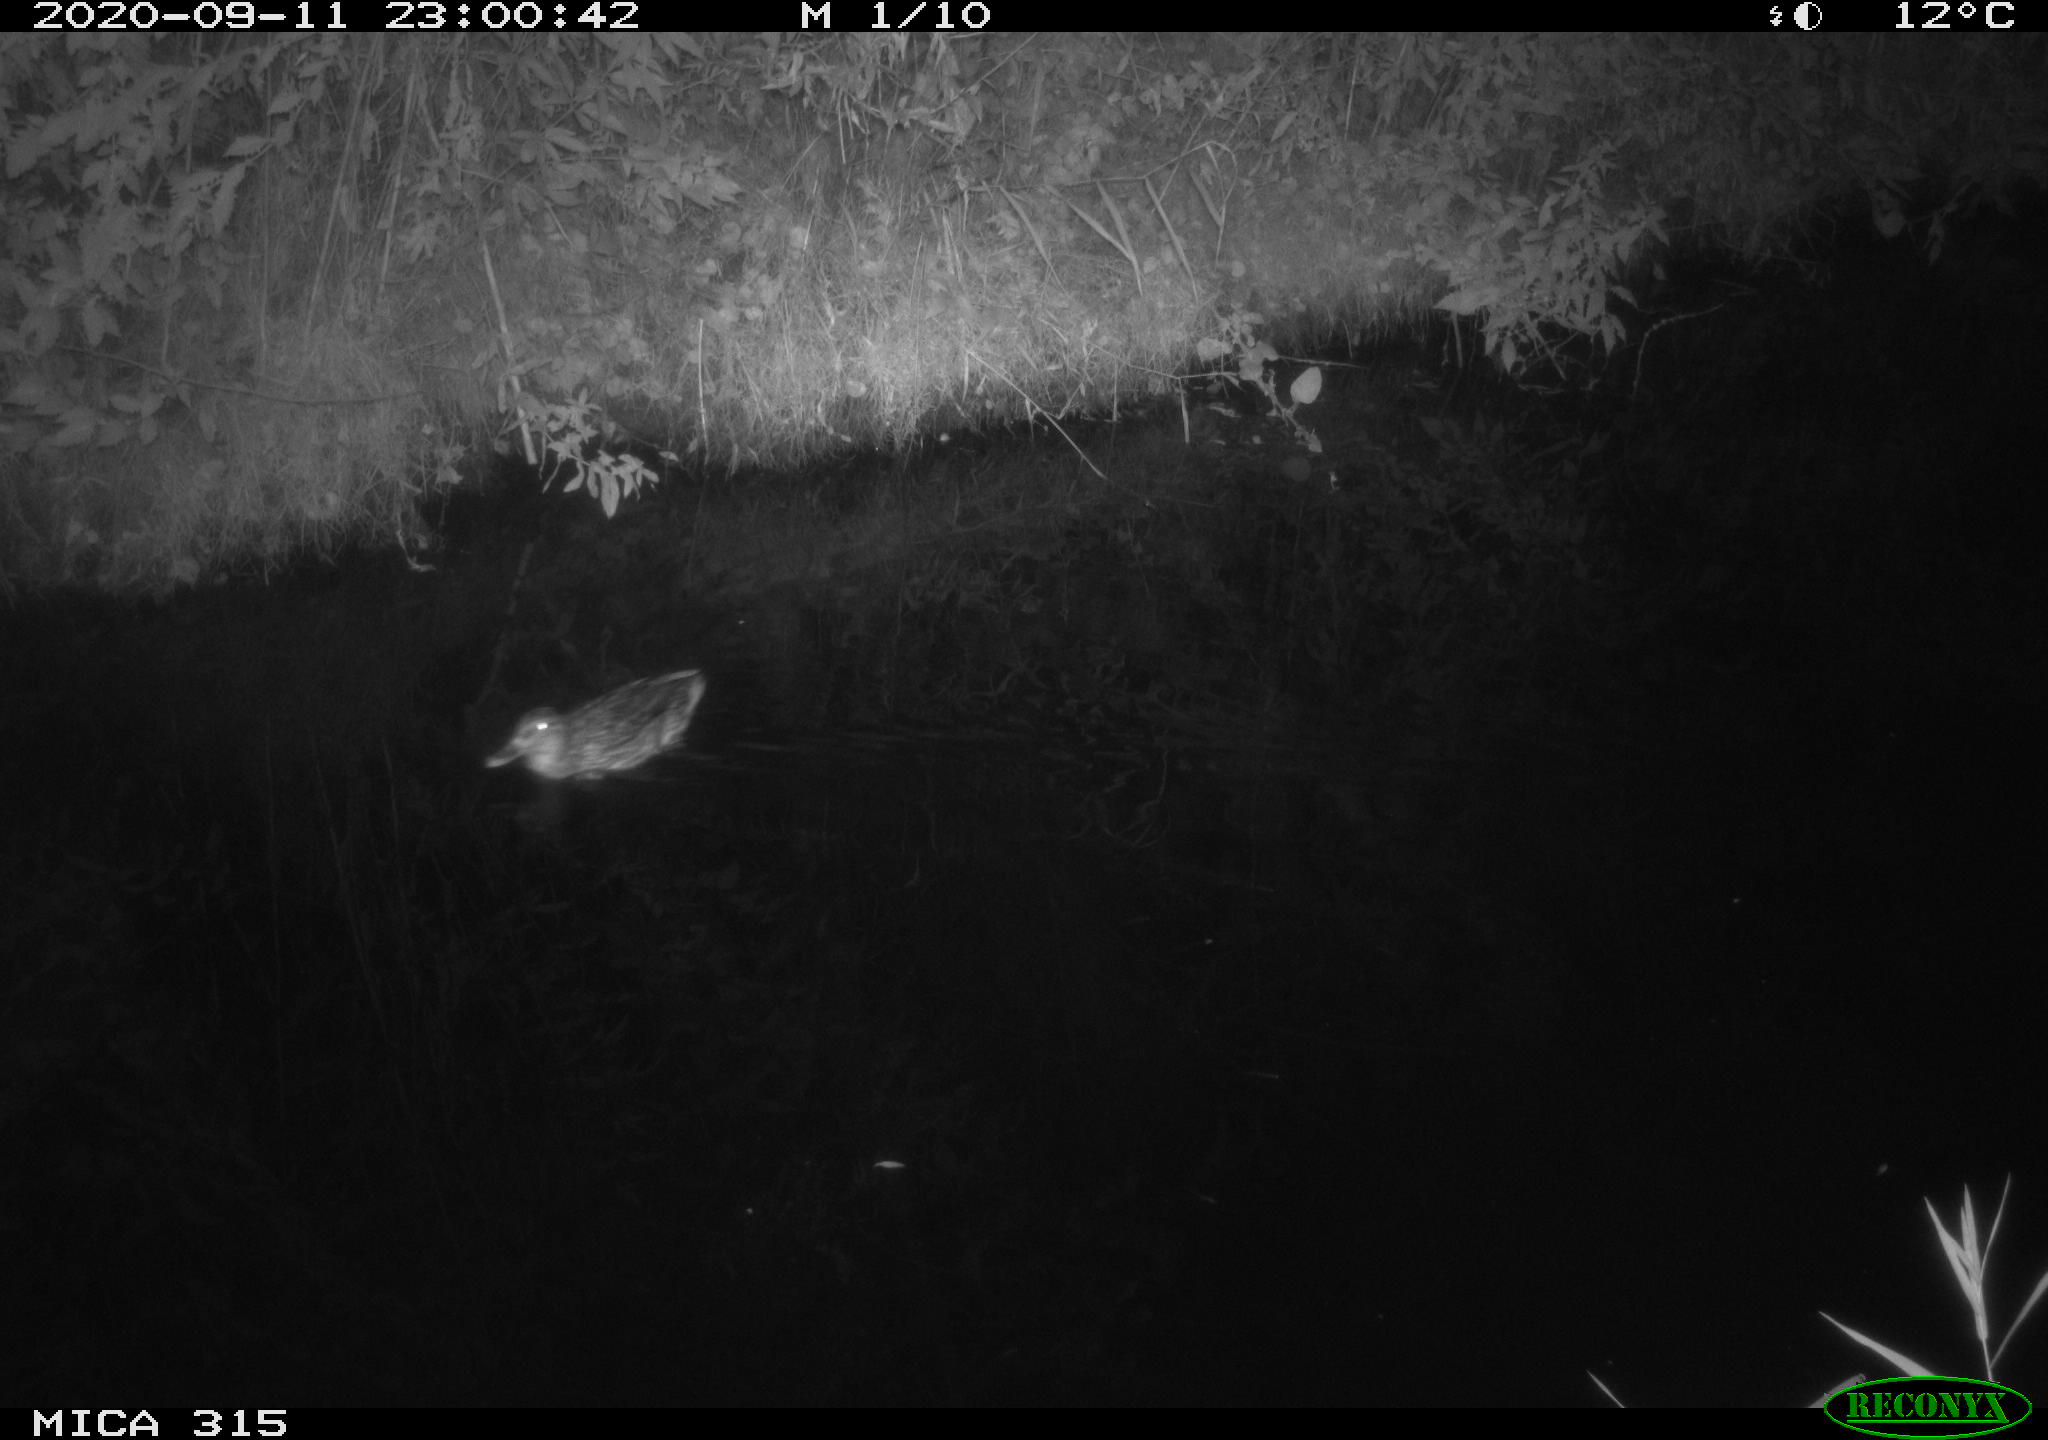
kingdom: Animalia
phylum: Chordata
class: Aves
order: Anseriformes
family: Anatidae
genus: Anas
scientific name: Anas platyrhynchos
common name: Mallard
